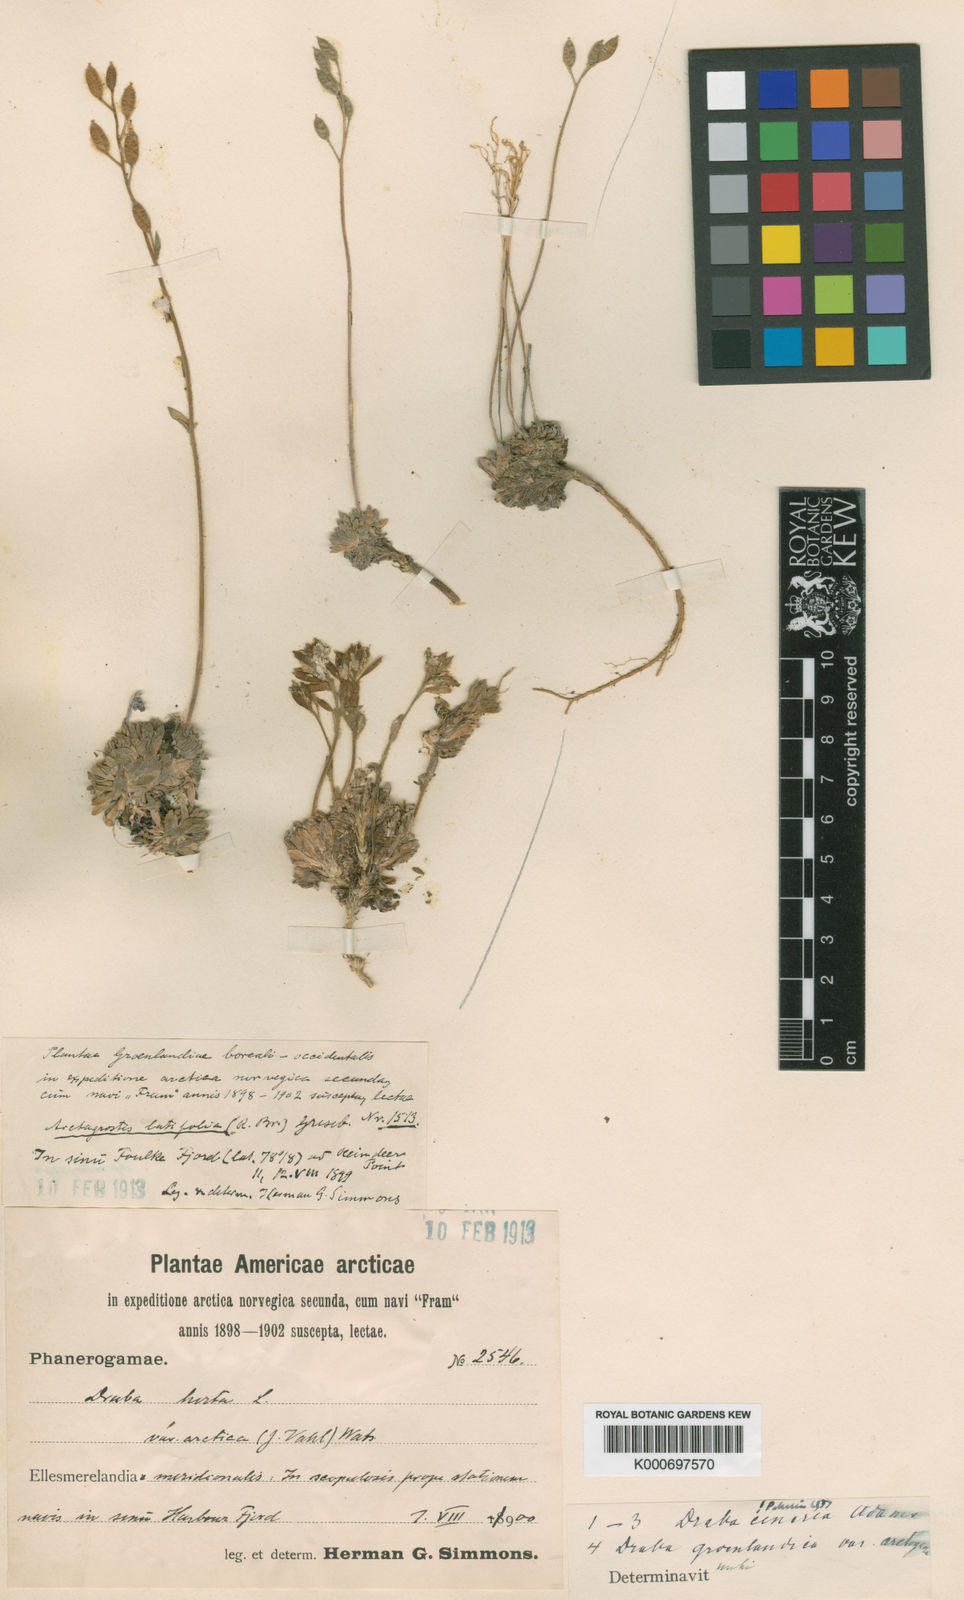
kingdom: Plantae
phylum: Tracheophyta
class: Magnoliopsida
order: Brassicales
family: Brassicaceae
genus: Draba
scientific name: Draba glabella
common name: Glaucous draba
